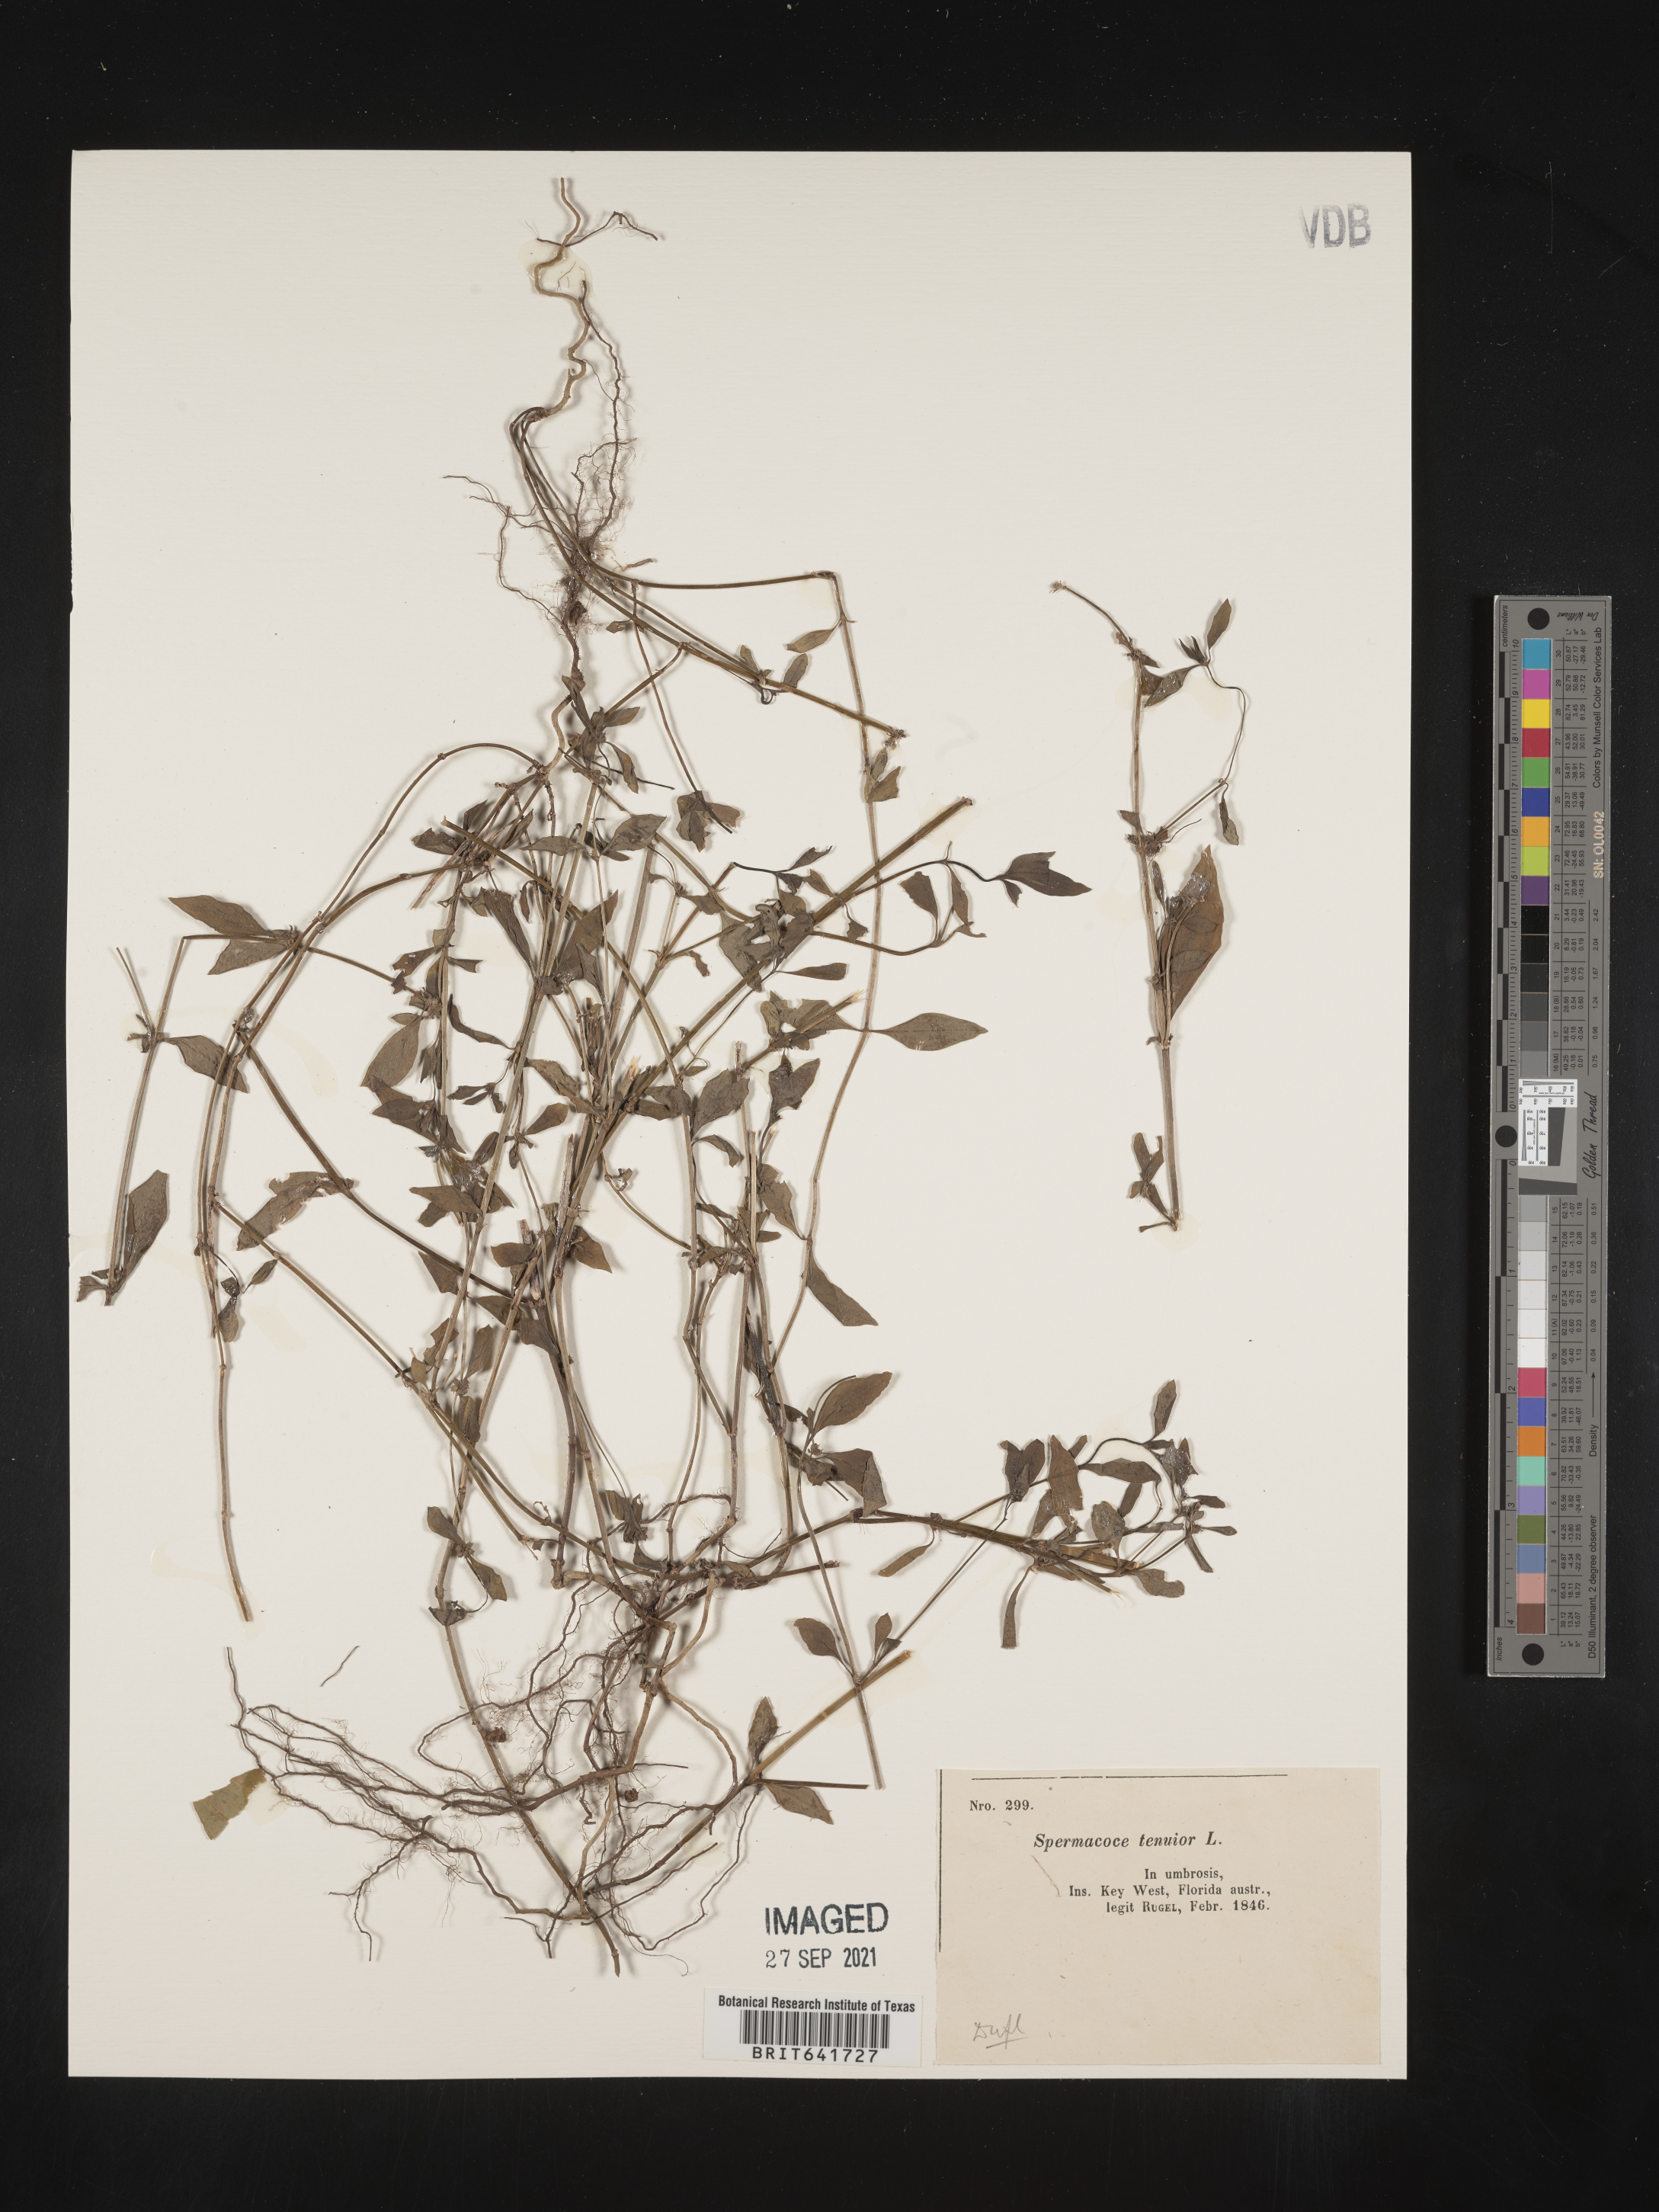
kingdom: Plantae
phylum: Tracheophyta
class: Magnoliopsida
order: Gentianales
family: Rubiaceae
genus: Spermacoce
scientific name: Spermacoce tenuior
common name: River false buttonweed
